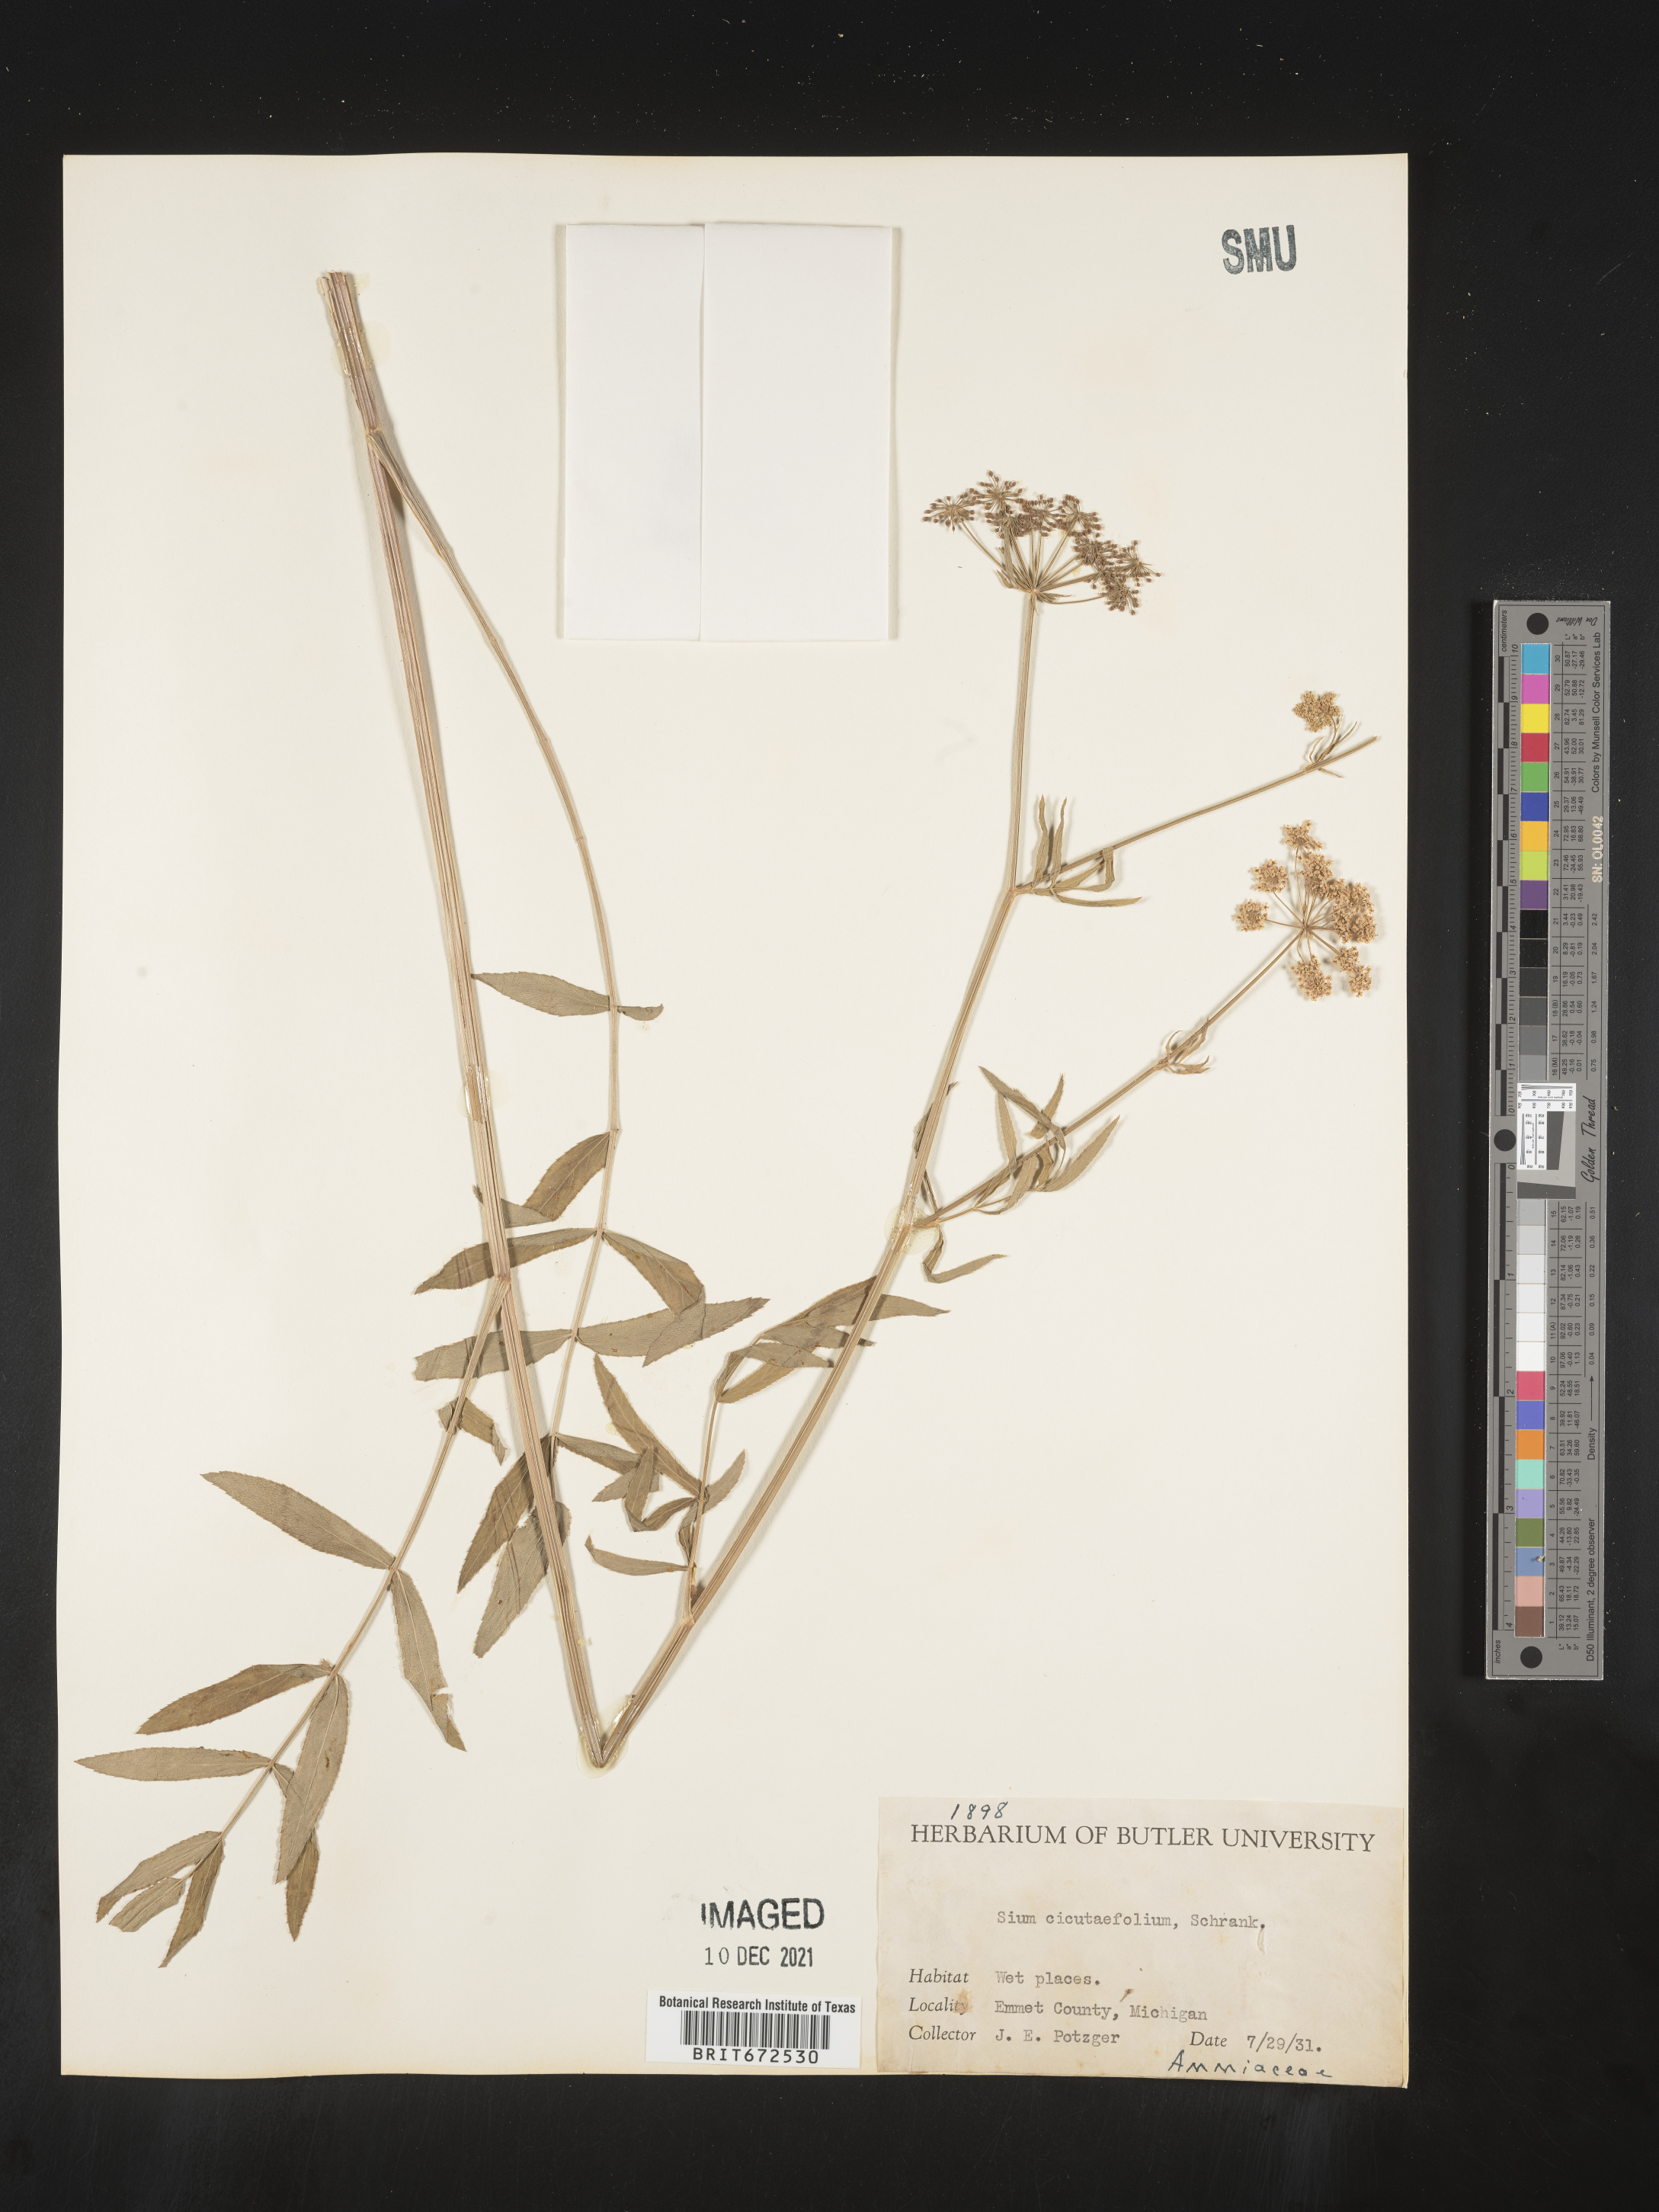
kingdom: Plantae
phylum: Tracheophyta
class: Magnoliopsida
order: Apiales
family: Apiaceae
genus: Sium
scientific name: Sium suave
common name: Hemlock water-parsnip
